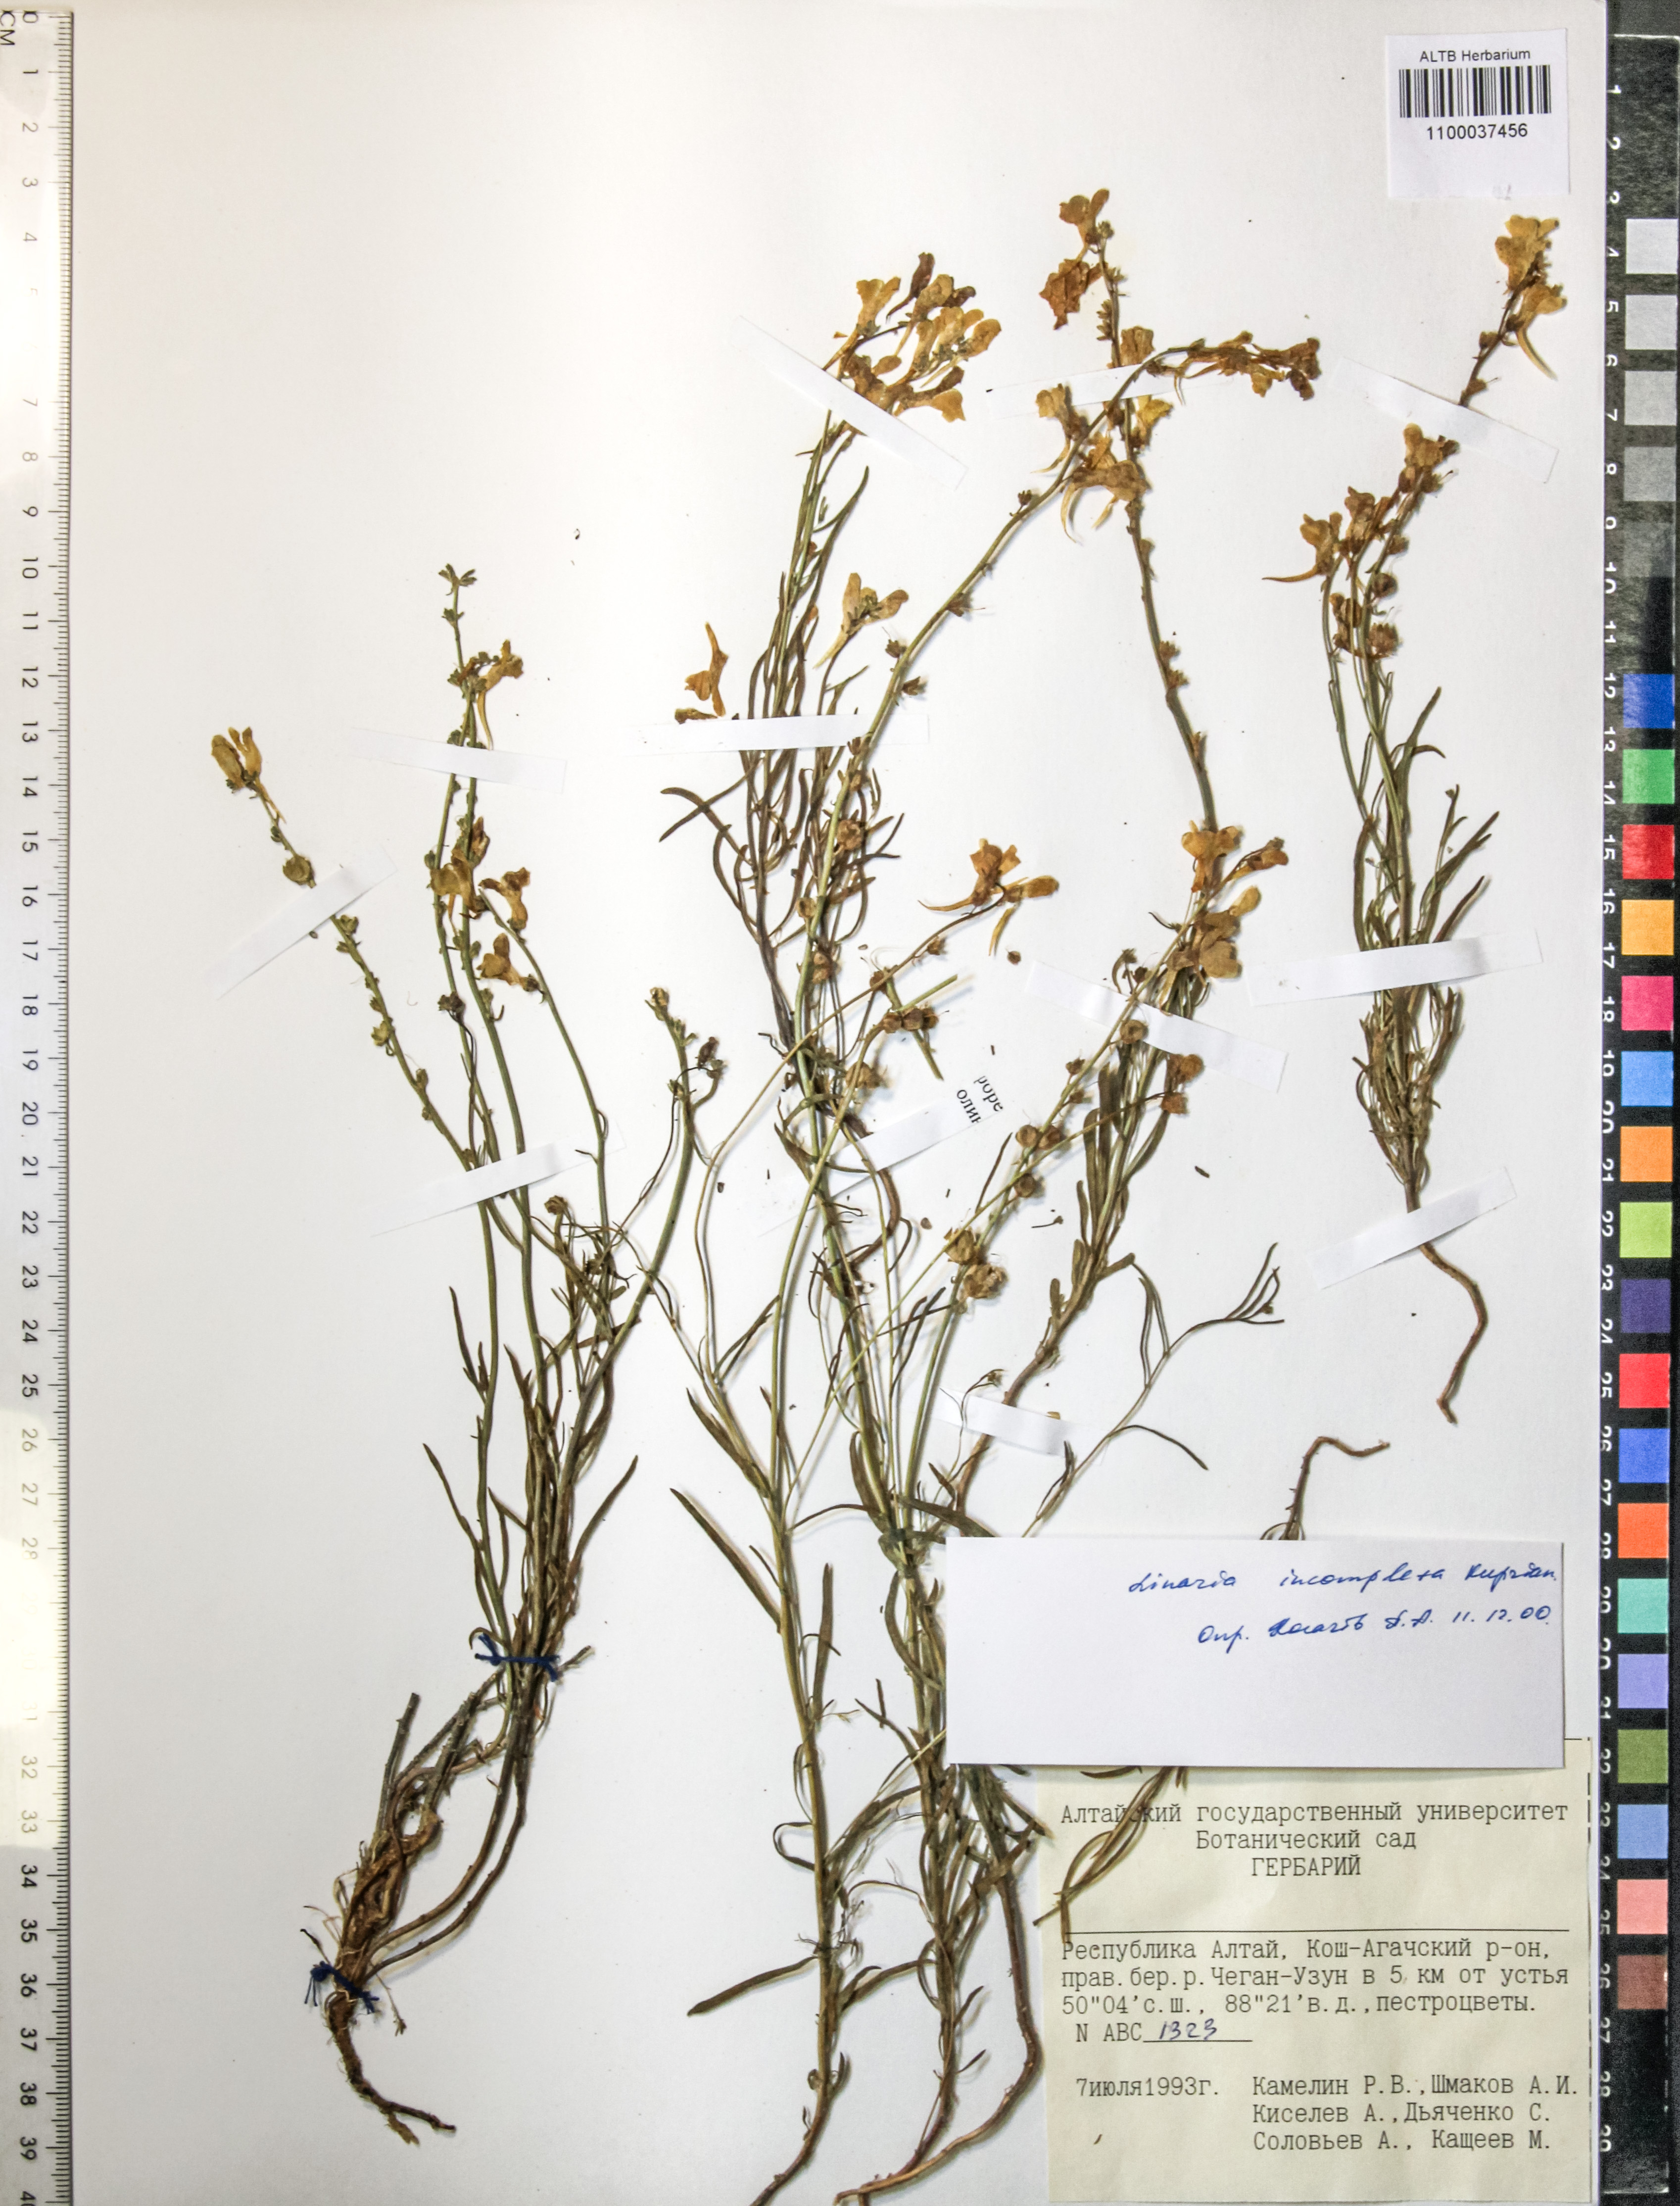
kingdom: Plantae
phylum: Tracheophyta
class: Magnoliopsida
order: Lamiales
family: Plantaginaceae
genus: Linaria
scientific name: Linaria incompleta
